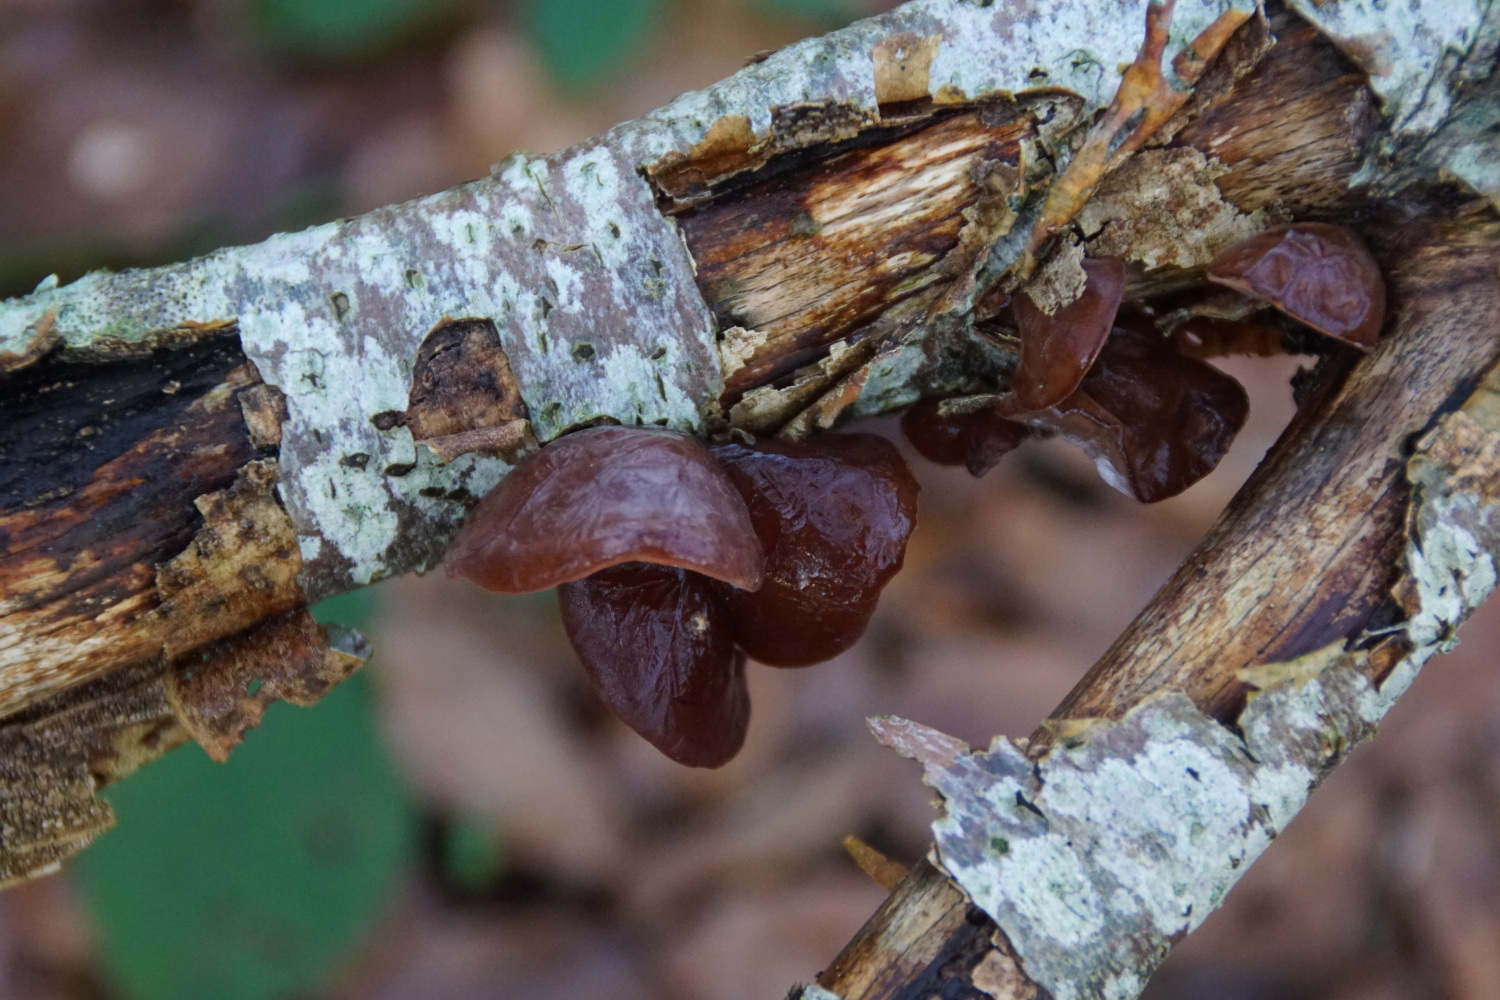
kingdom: Fungi
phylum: Basidiomycota
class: Agaricomycetes
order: Auriculariales
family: Auriculariaceae
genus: Auricularia
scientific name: Auricularia auricula-judae
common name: almindelig judasøre
